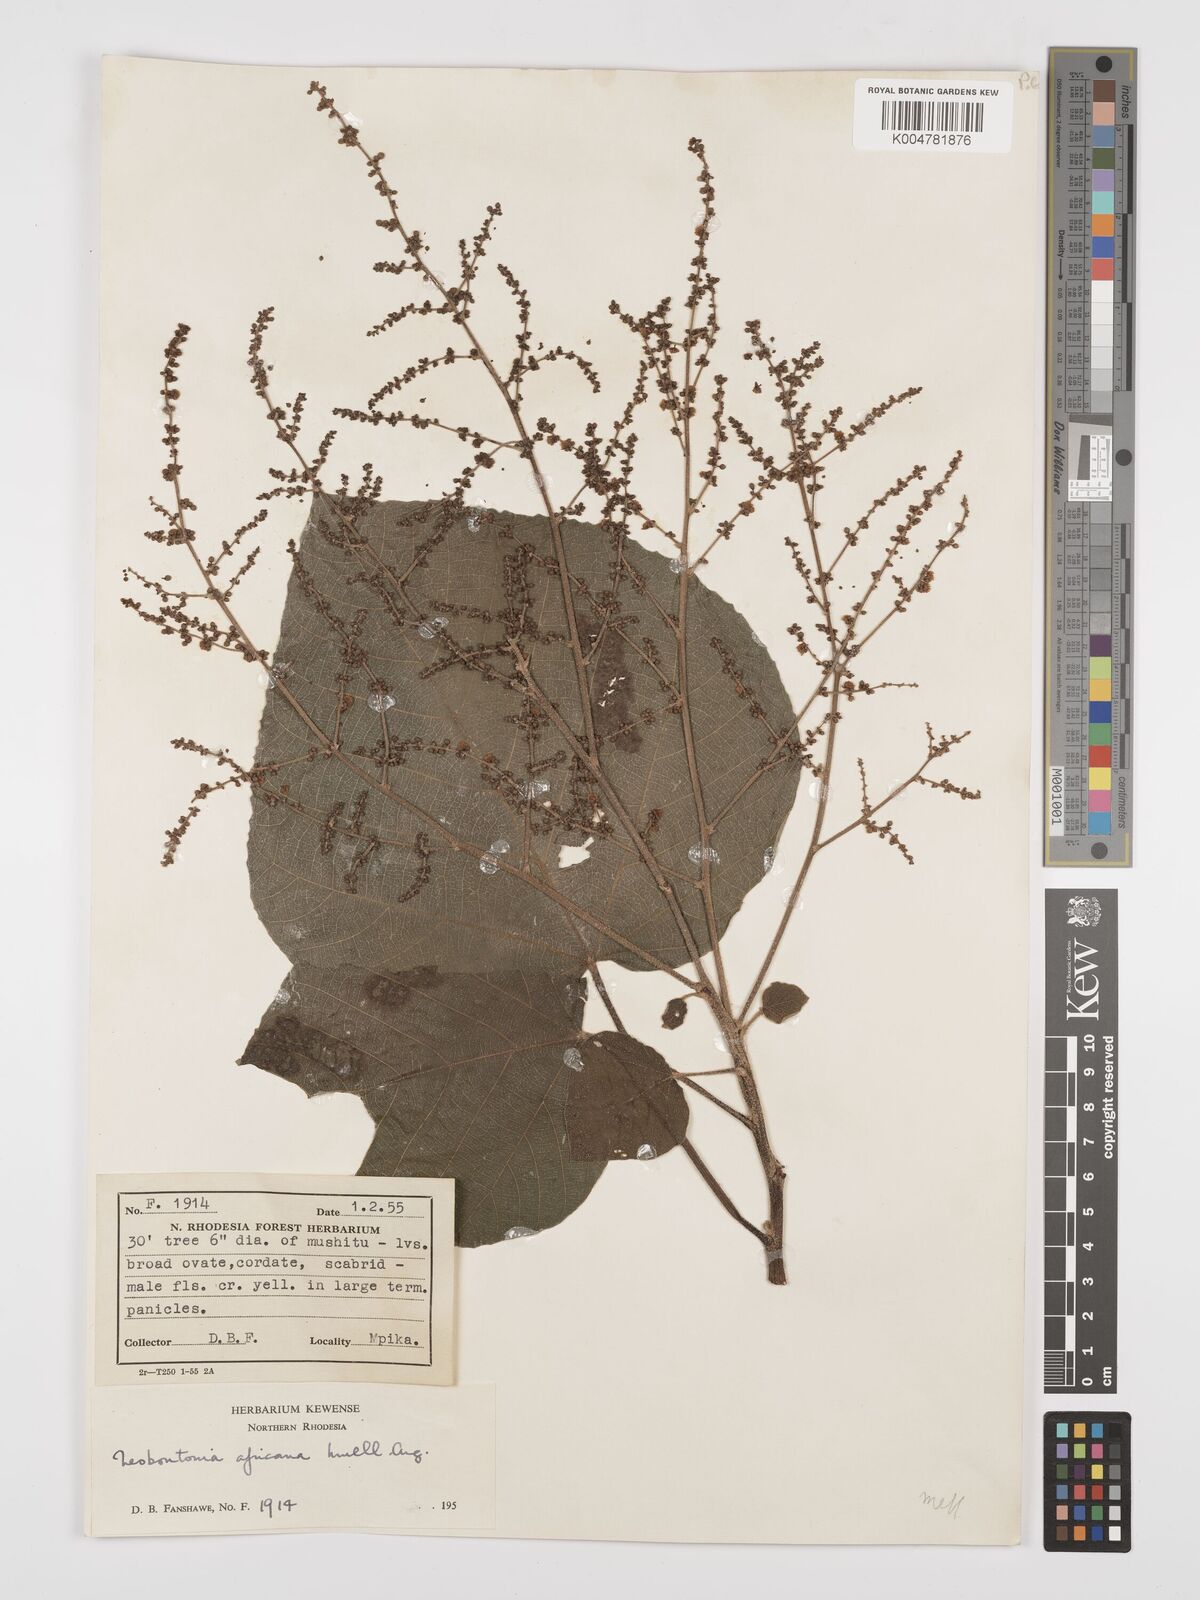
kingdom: Plantae
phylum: Tracheophyta
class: Magnoliopsida
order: Malpighiales
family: Euphorbiaceae
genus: Neoboutonia
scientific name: Neoboutonia melleri
